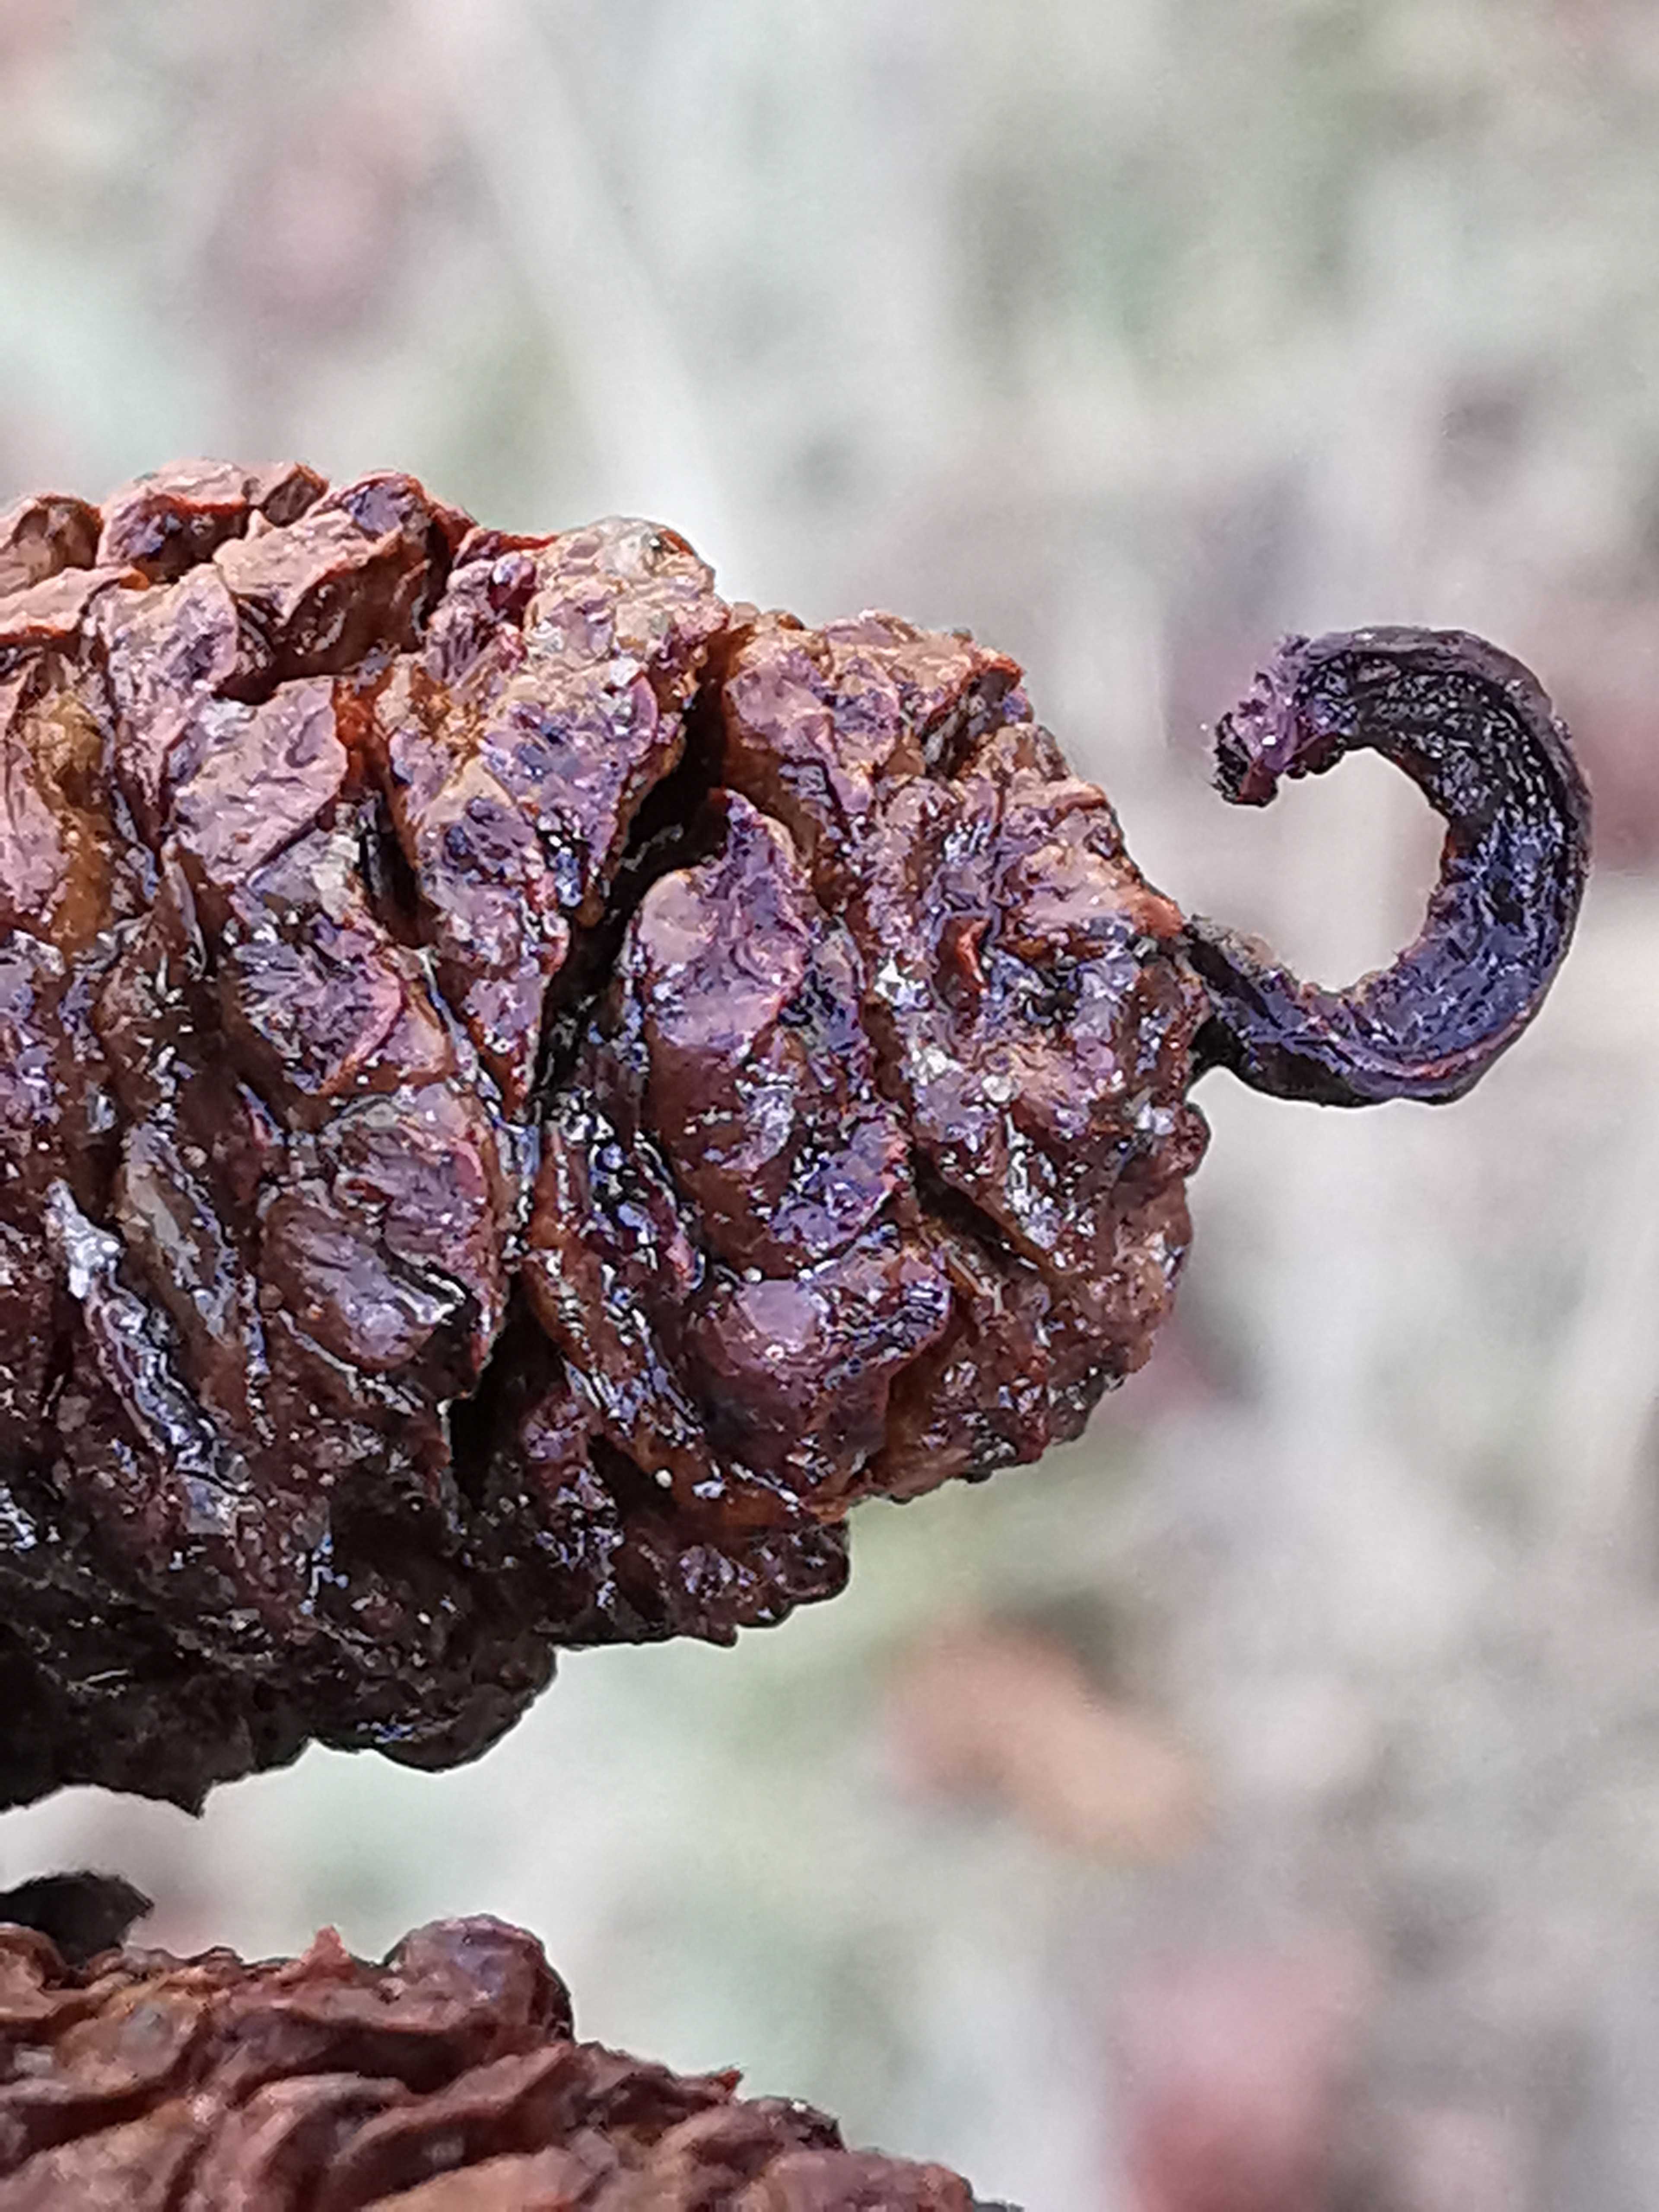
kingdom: Fungi
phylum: Ascomycota
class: Taphrinomycetes
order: Taphrinales
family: Taphrinaceae
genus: Taphrina
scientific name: Taphrina alni
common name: Alder tongue
